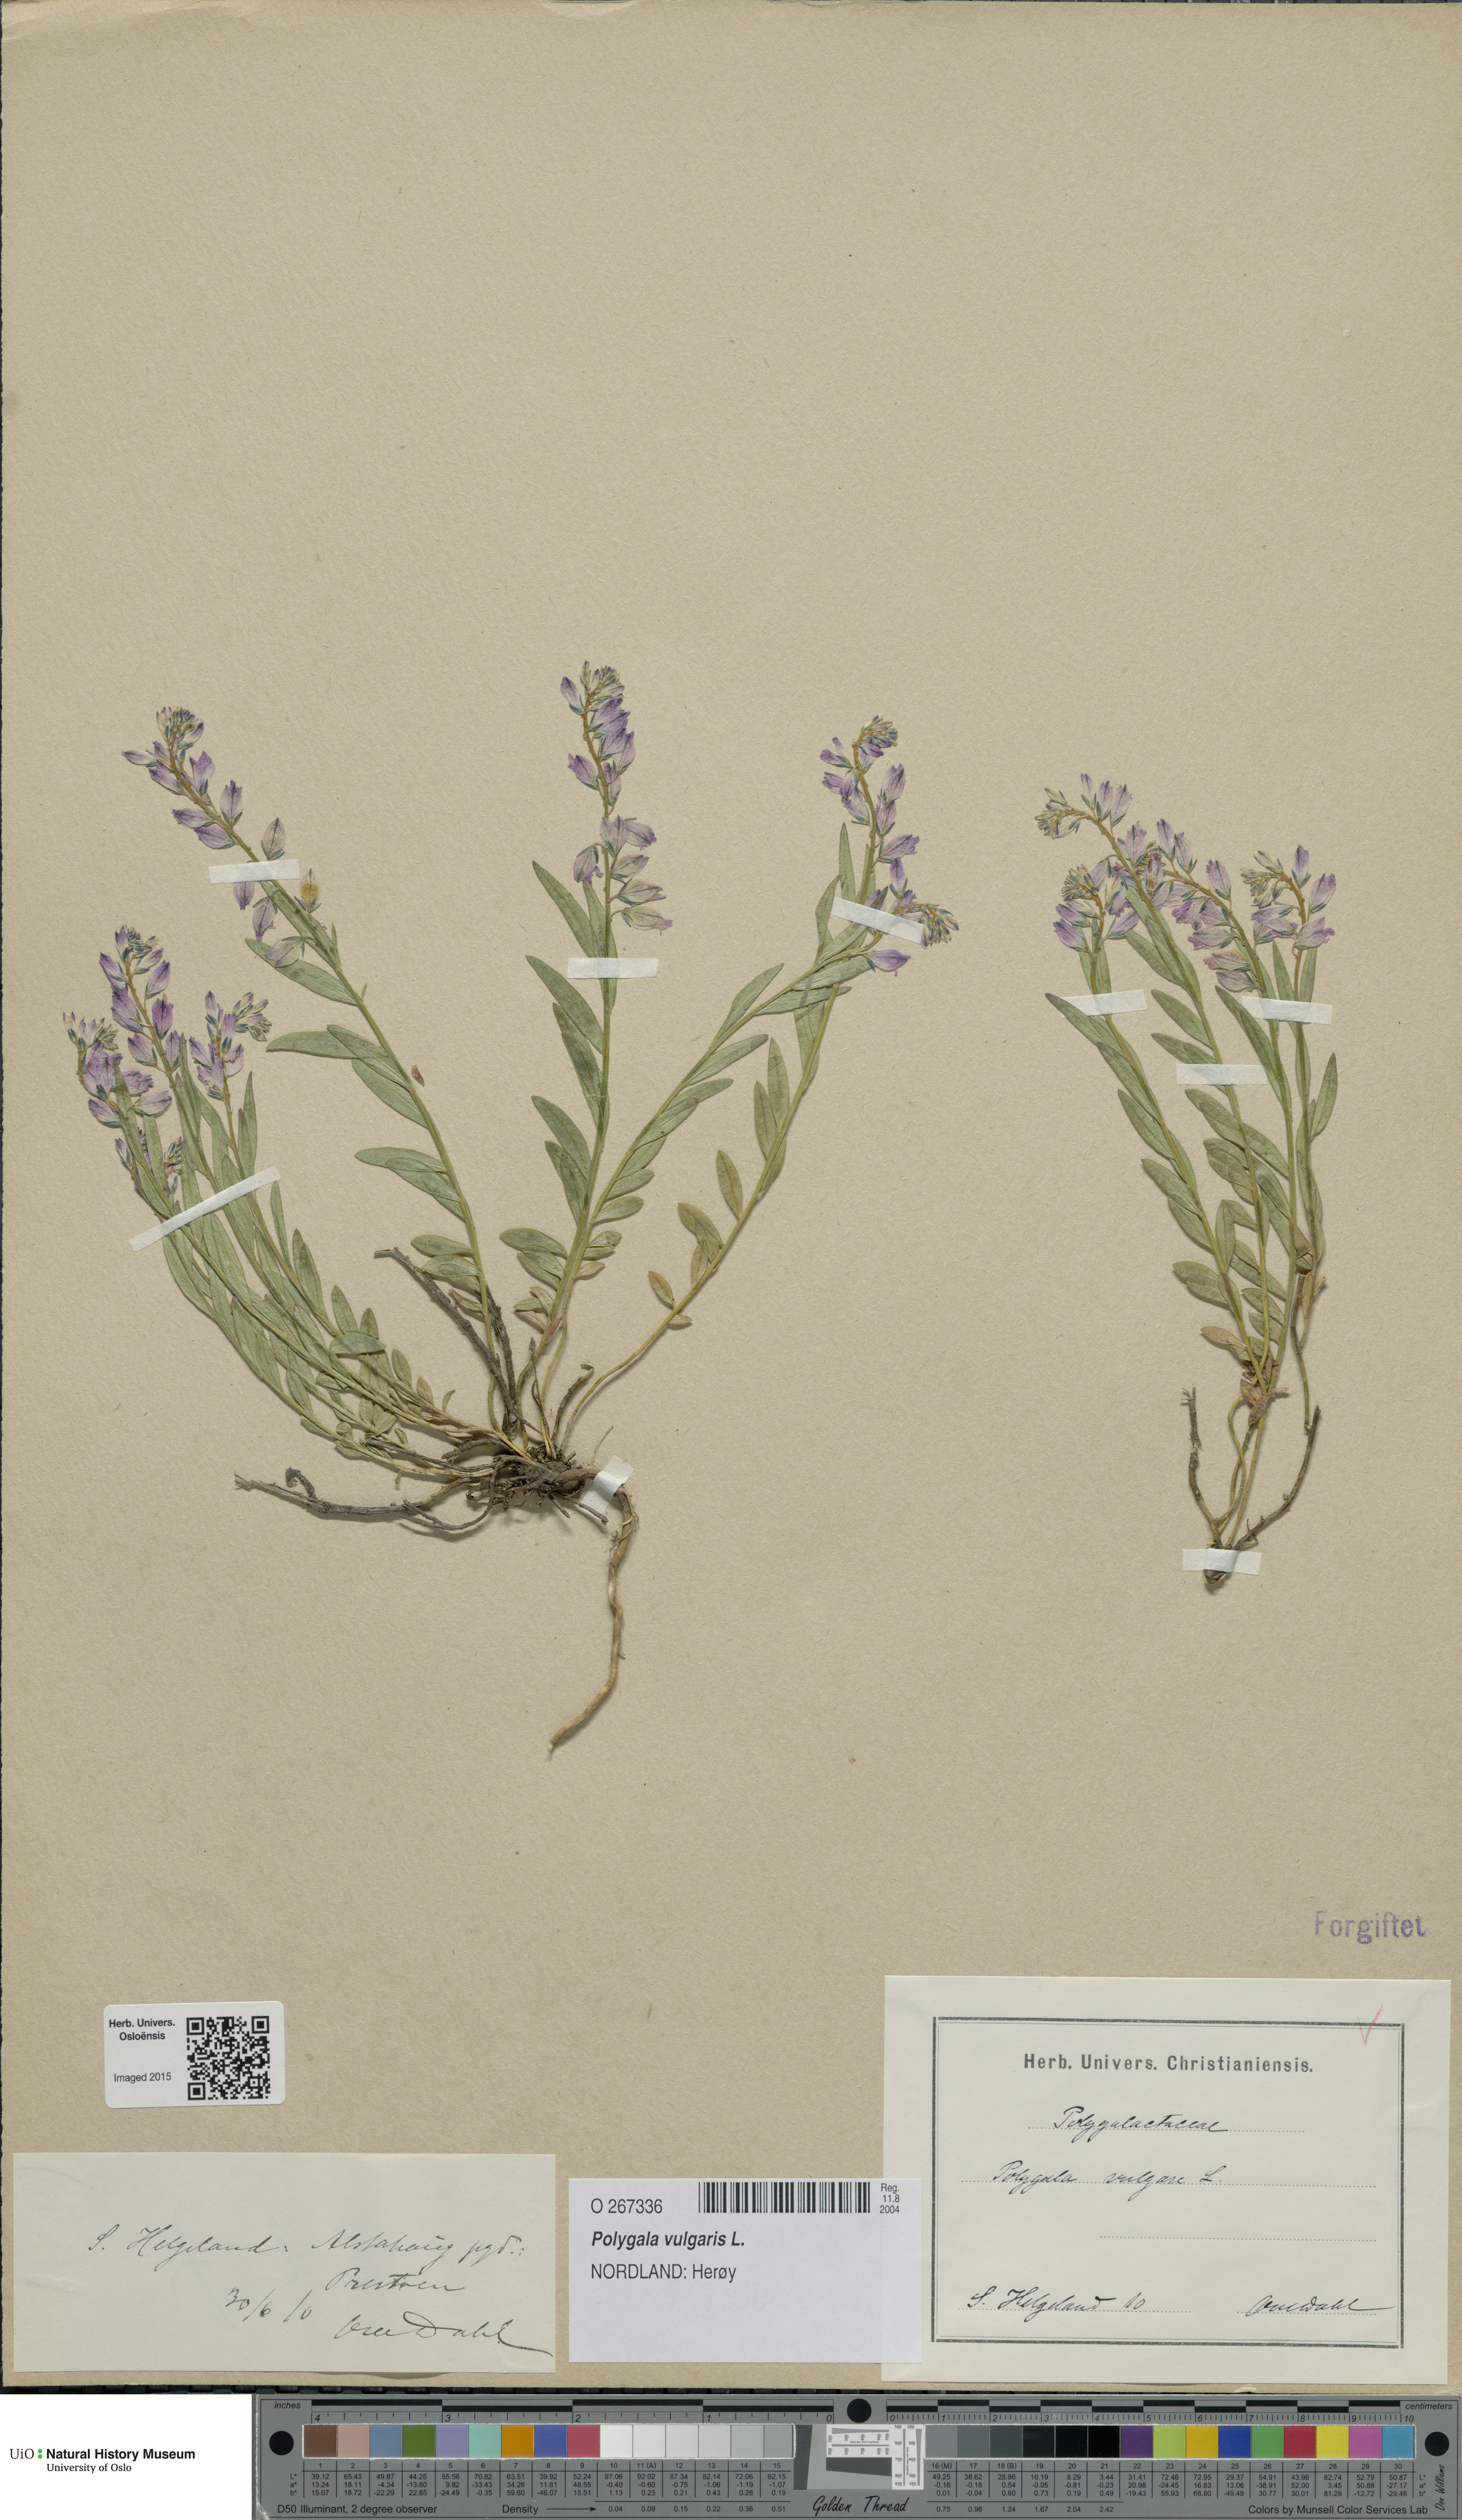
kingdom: Plantae
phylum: Tracheophyta
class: Magnoliopsida
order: Fabales
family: Polygalaceae
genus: Polygala
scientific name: Polygala vulgaris
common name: Common milkwort
